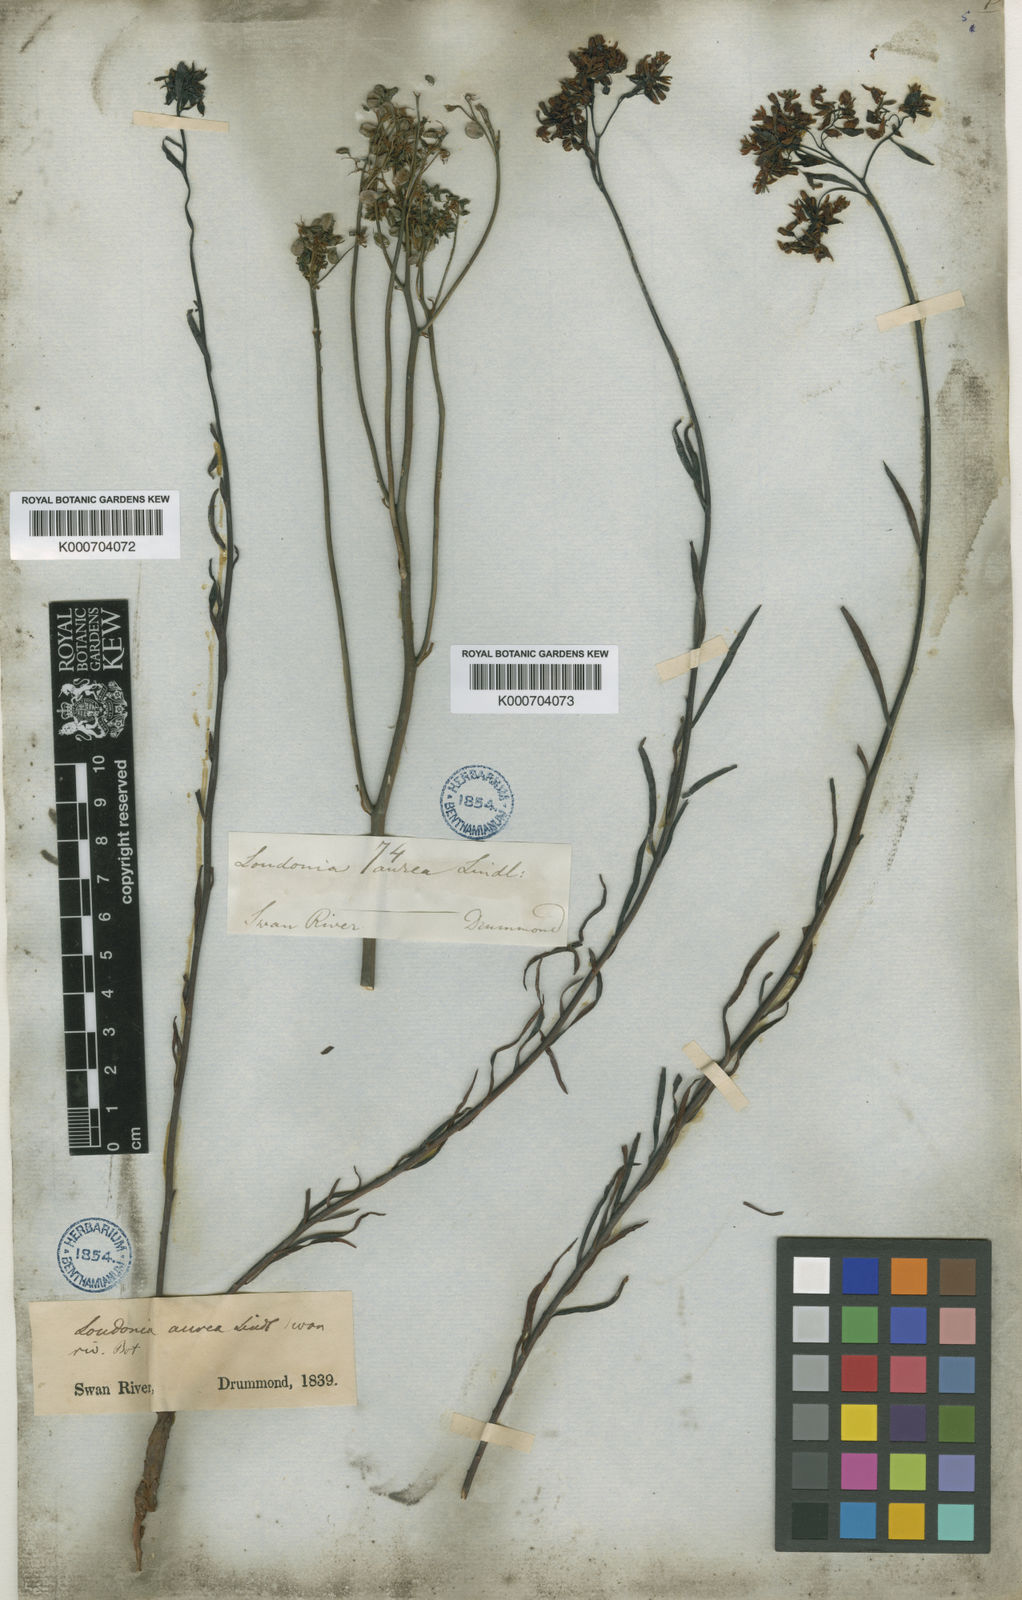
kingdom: Plantae
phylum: Tracheophyta
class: Magnoliopsida
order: Saxifragales
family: Haloragaceae
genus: Glischrocaryon
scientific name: Glischrocaryon aureum
